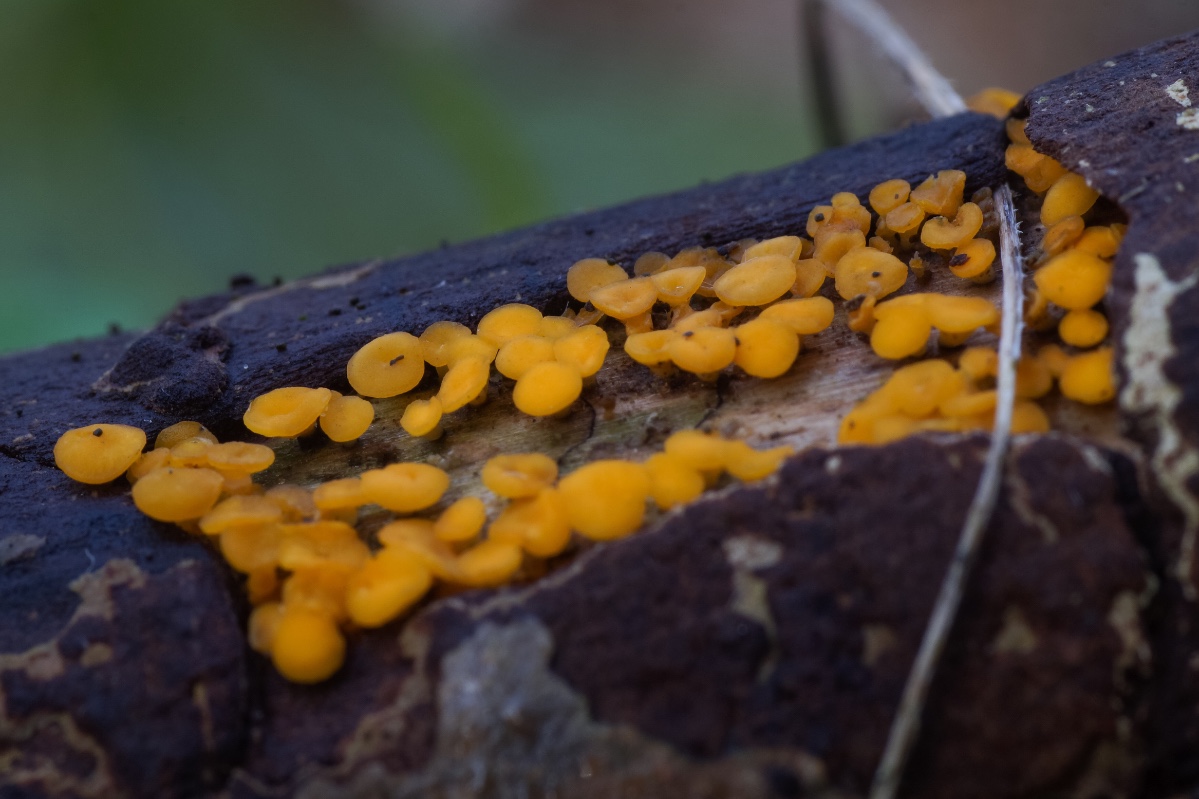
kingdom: Fungi
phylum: Ascomycota
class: Leotiomycetes
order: Helotiales
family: Helotiaceae
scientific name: Helotiaceae
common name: stilkskivefamilien
